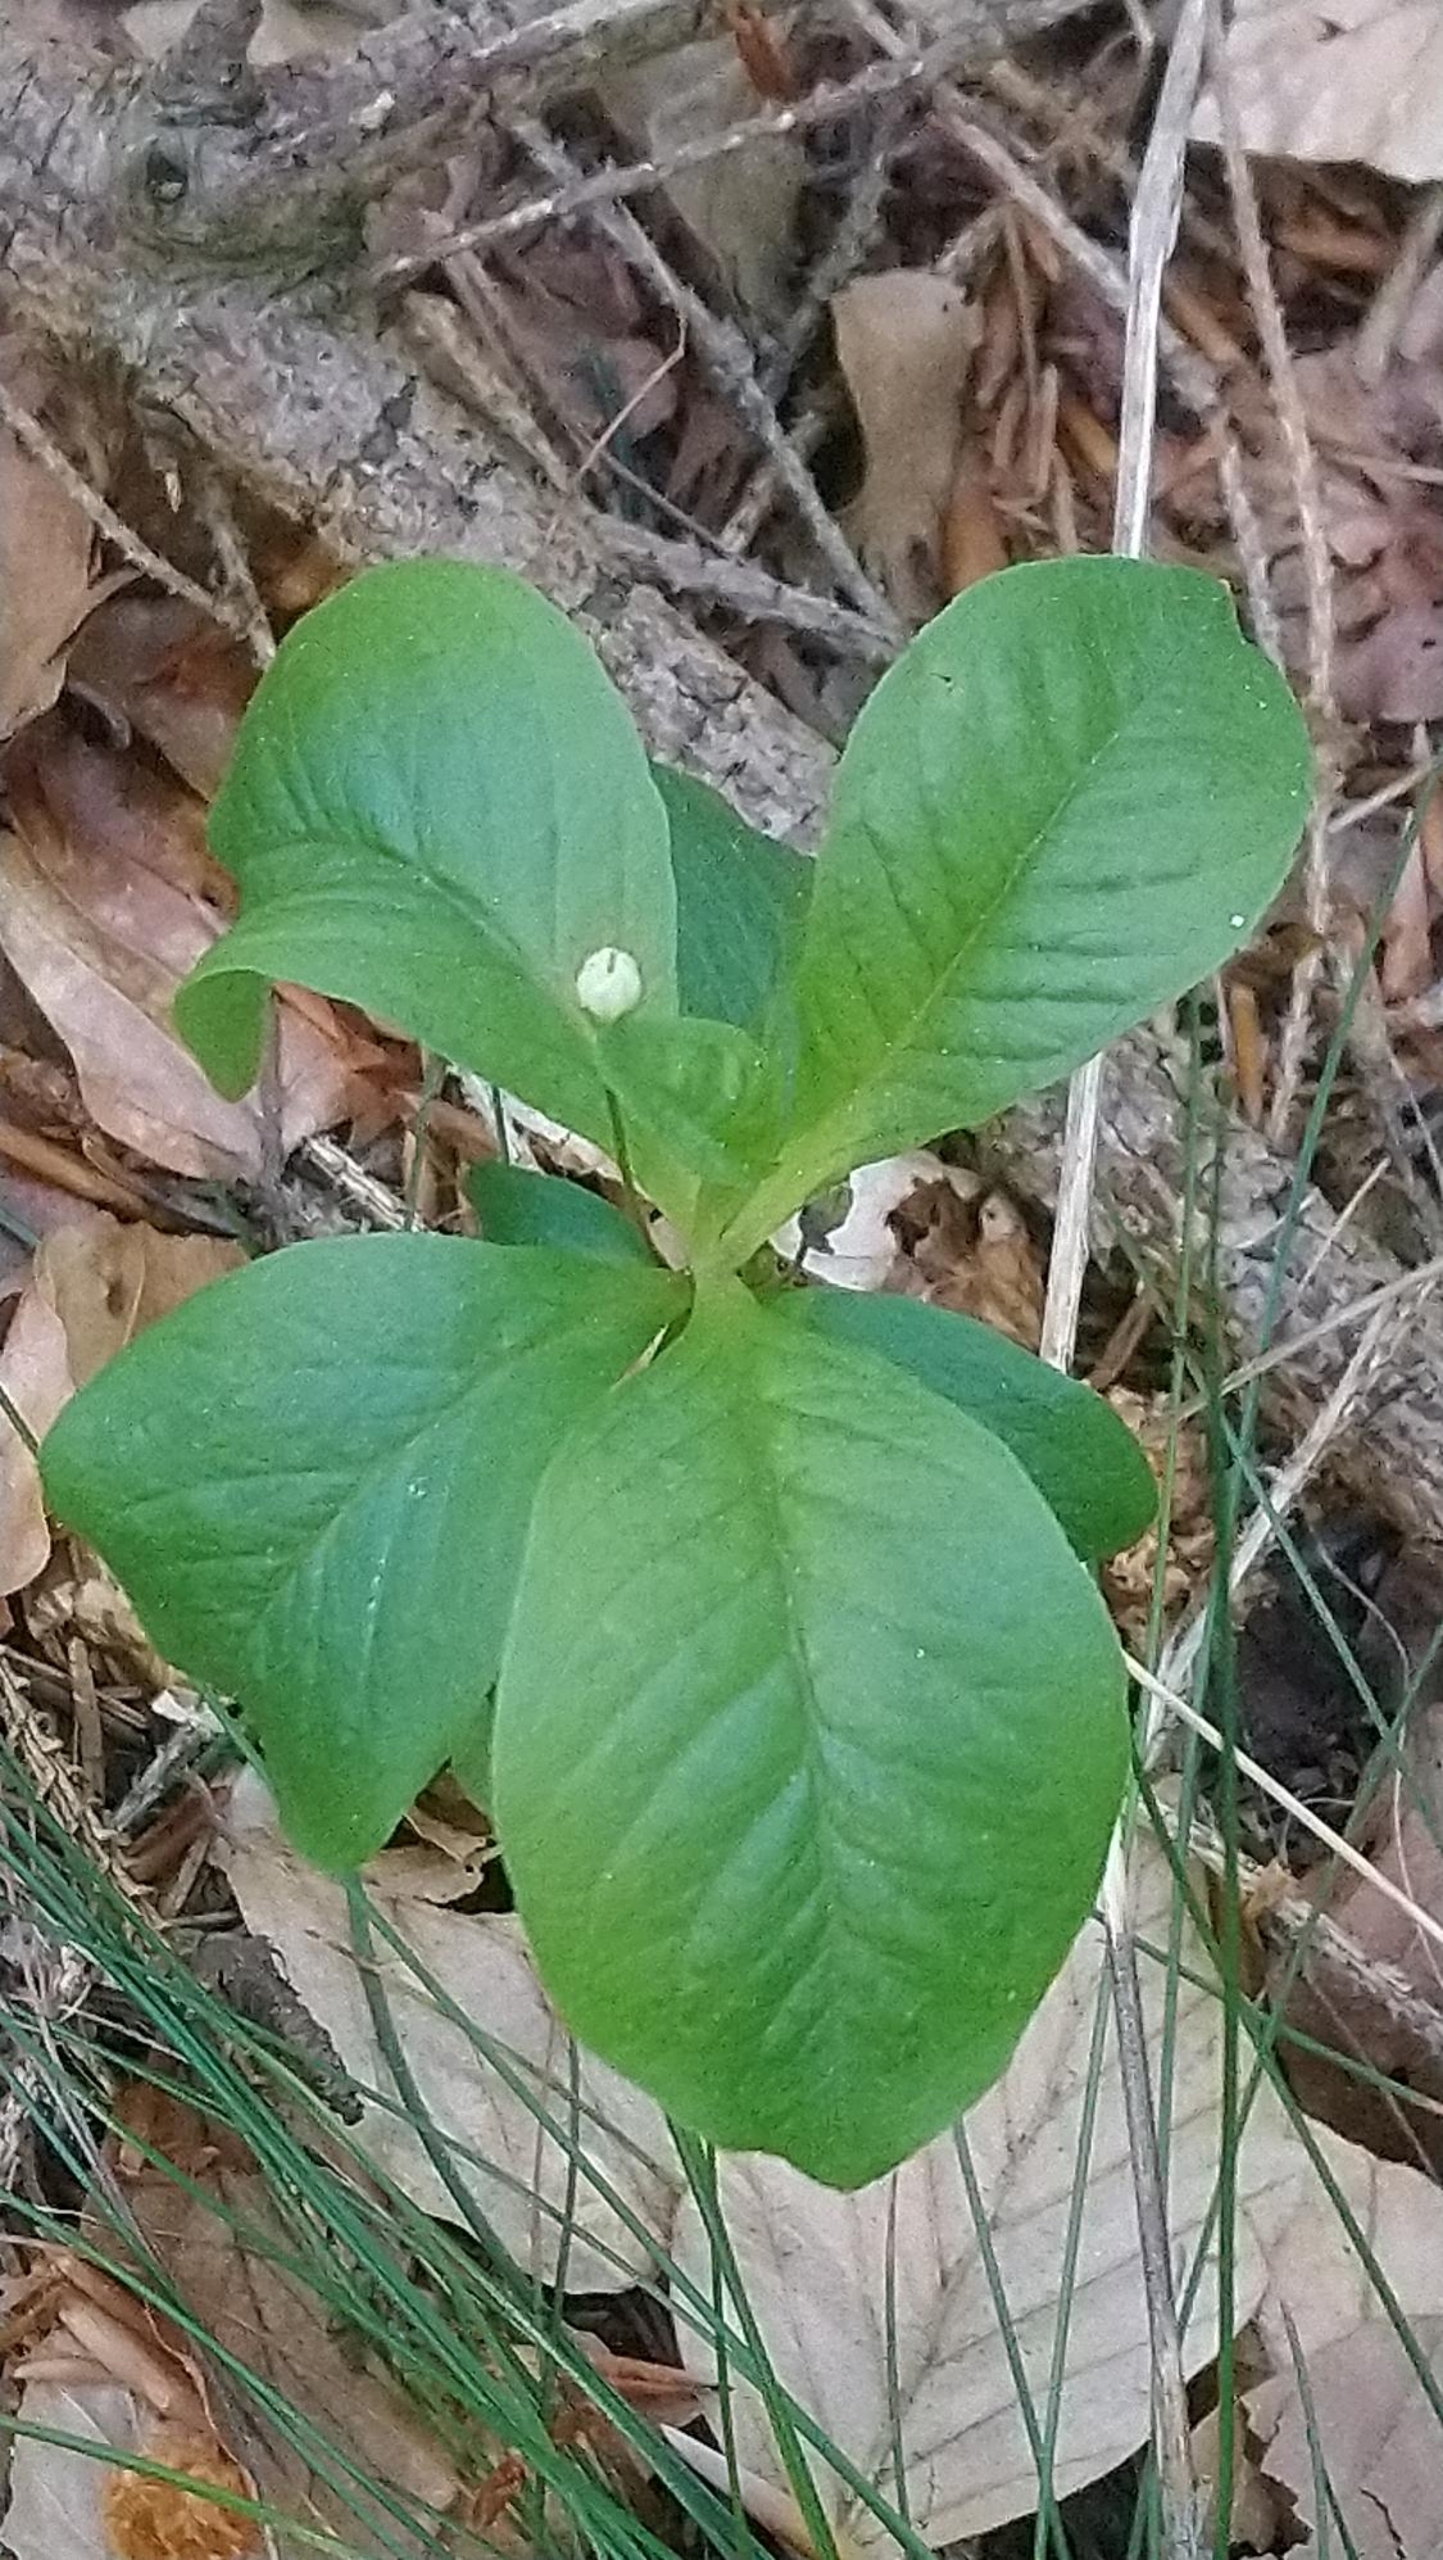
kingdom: Plantae
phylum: Tracheophyta
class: Magnoliopsida
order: Ericales
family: Primulaceae
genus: Lysimachia
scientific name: Lysimachia europaea
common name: Skovstjerne
